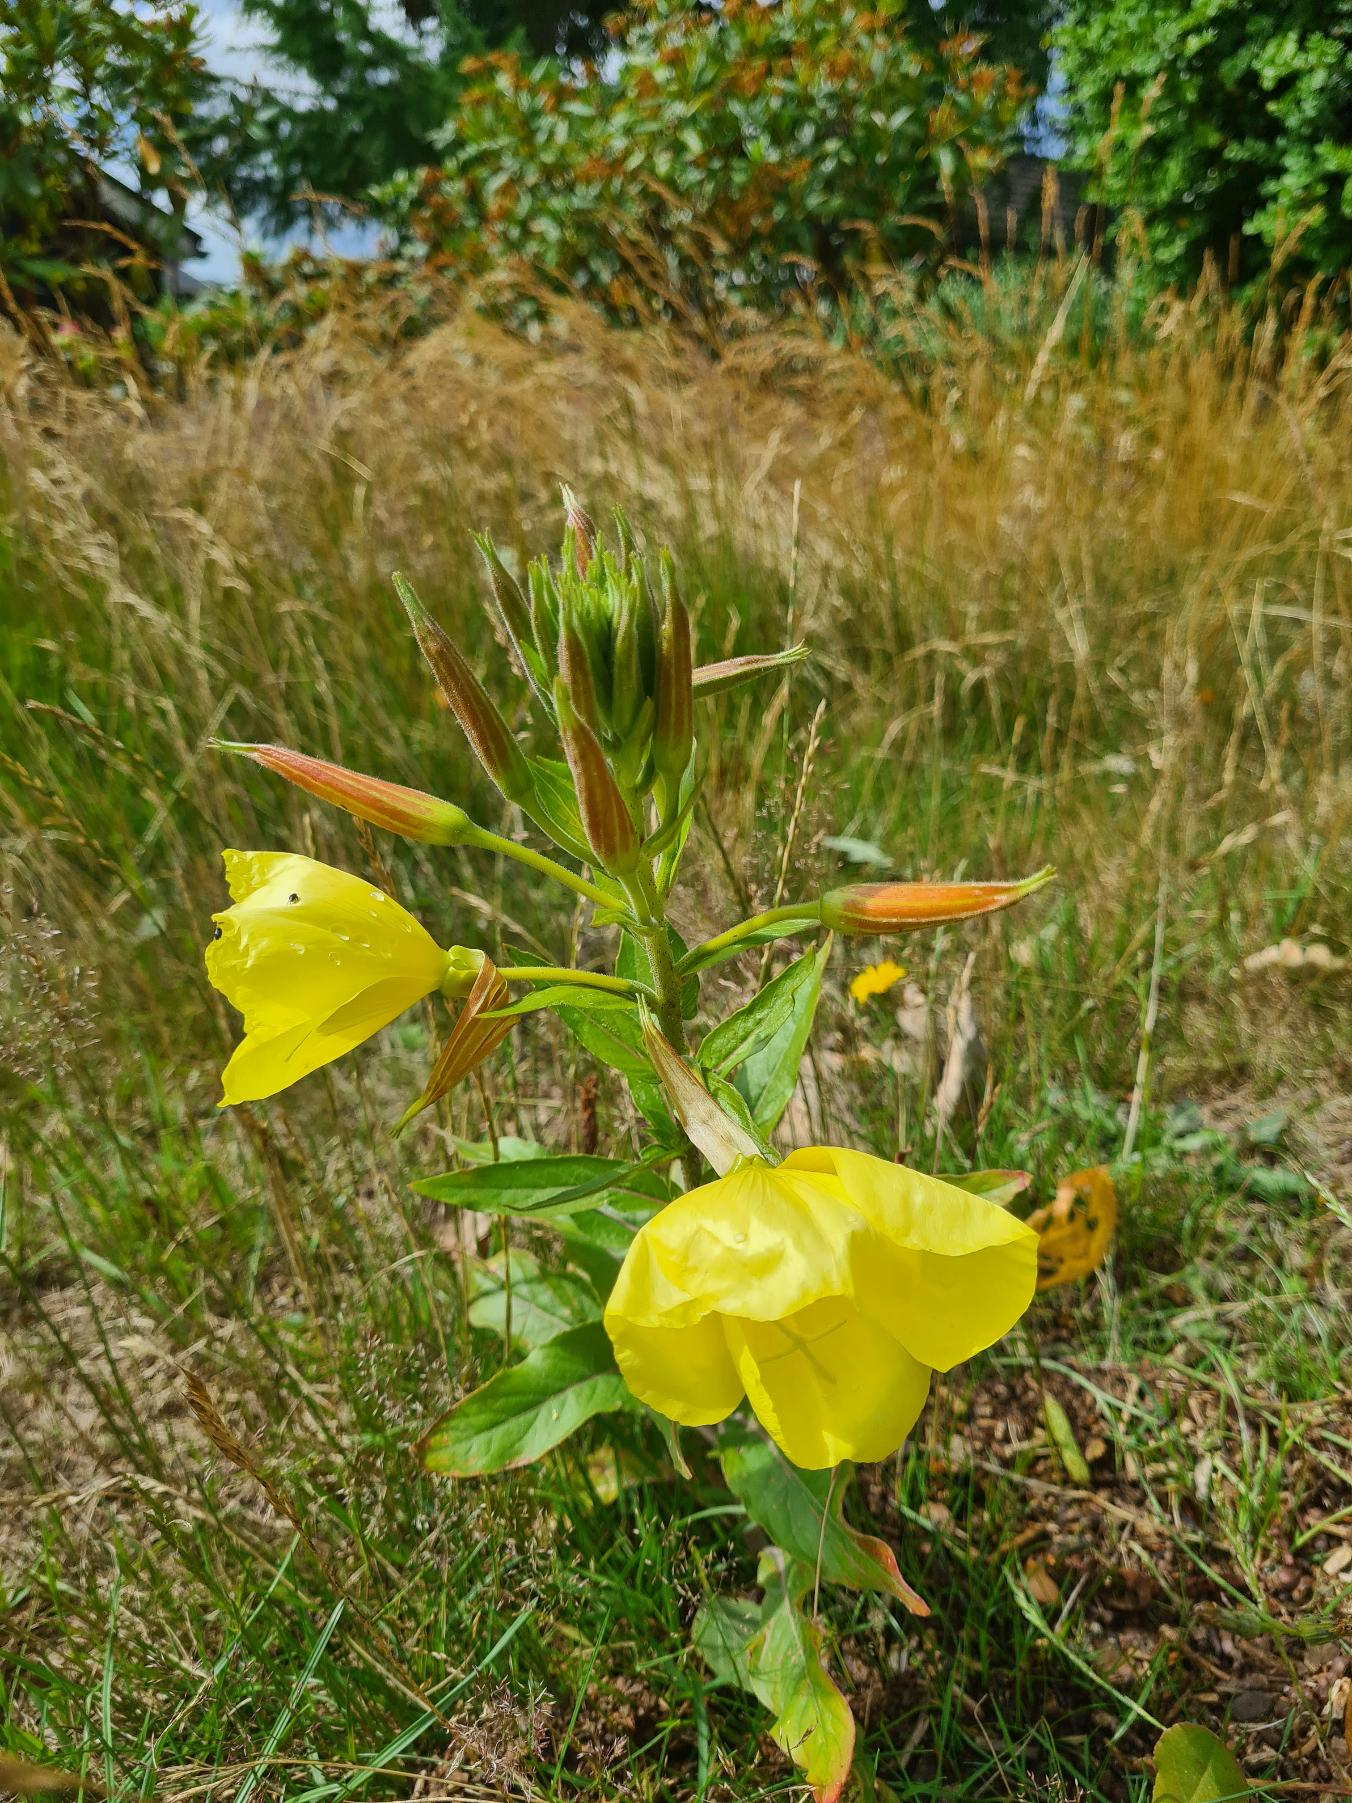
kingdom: Plantae
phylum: Tracheophyta
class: Magnoliopsida
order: Myrtales
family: Onagraceae
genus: Oenothera
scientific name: Oenothera glazioviana
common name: Kæmpe-natlys
